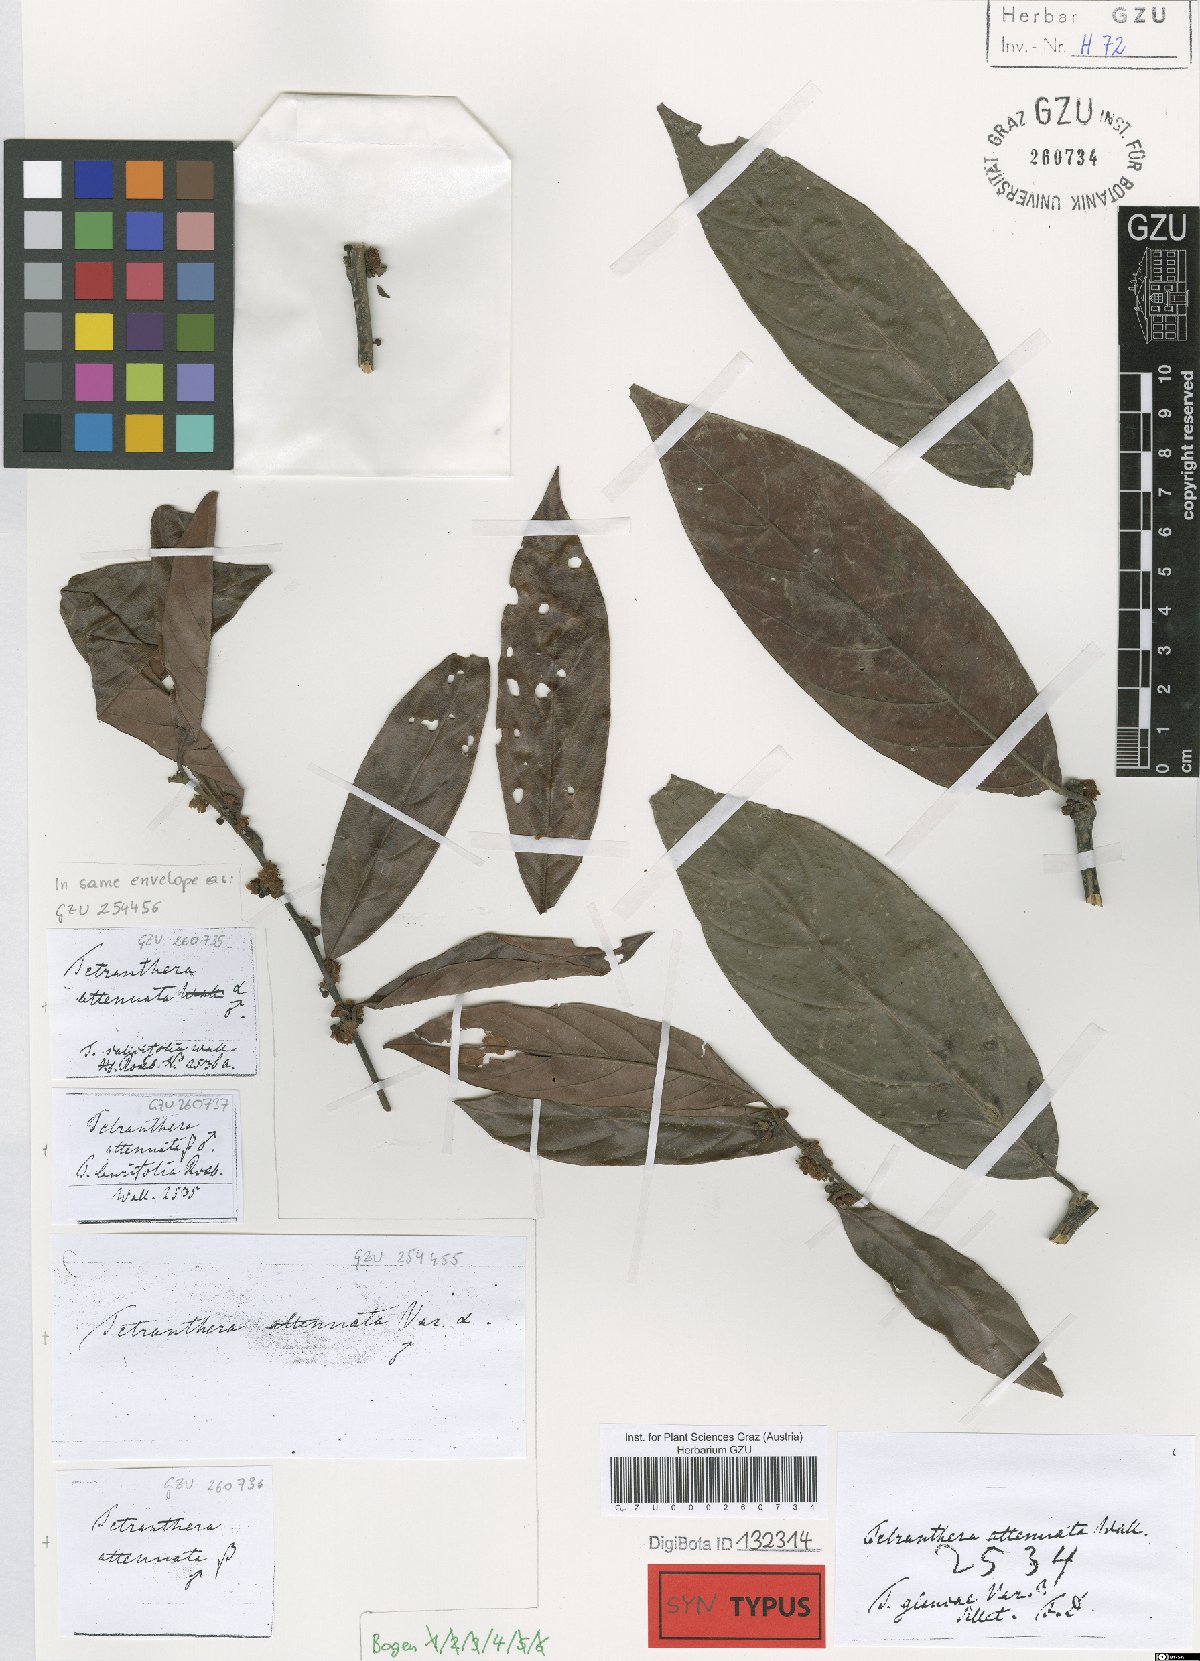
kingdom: Plantae
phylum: Tracheophyta
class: Magnoliopsida
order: Laurales
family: Lauraceae
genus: Litsea
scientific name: Litsea salicifolia
